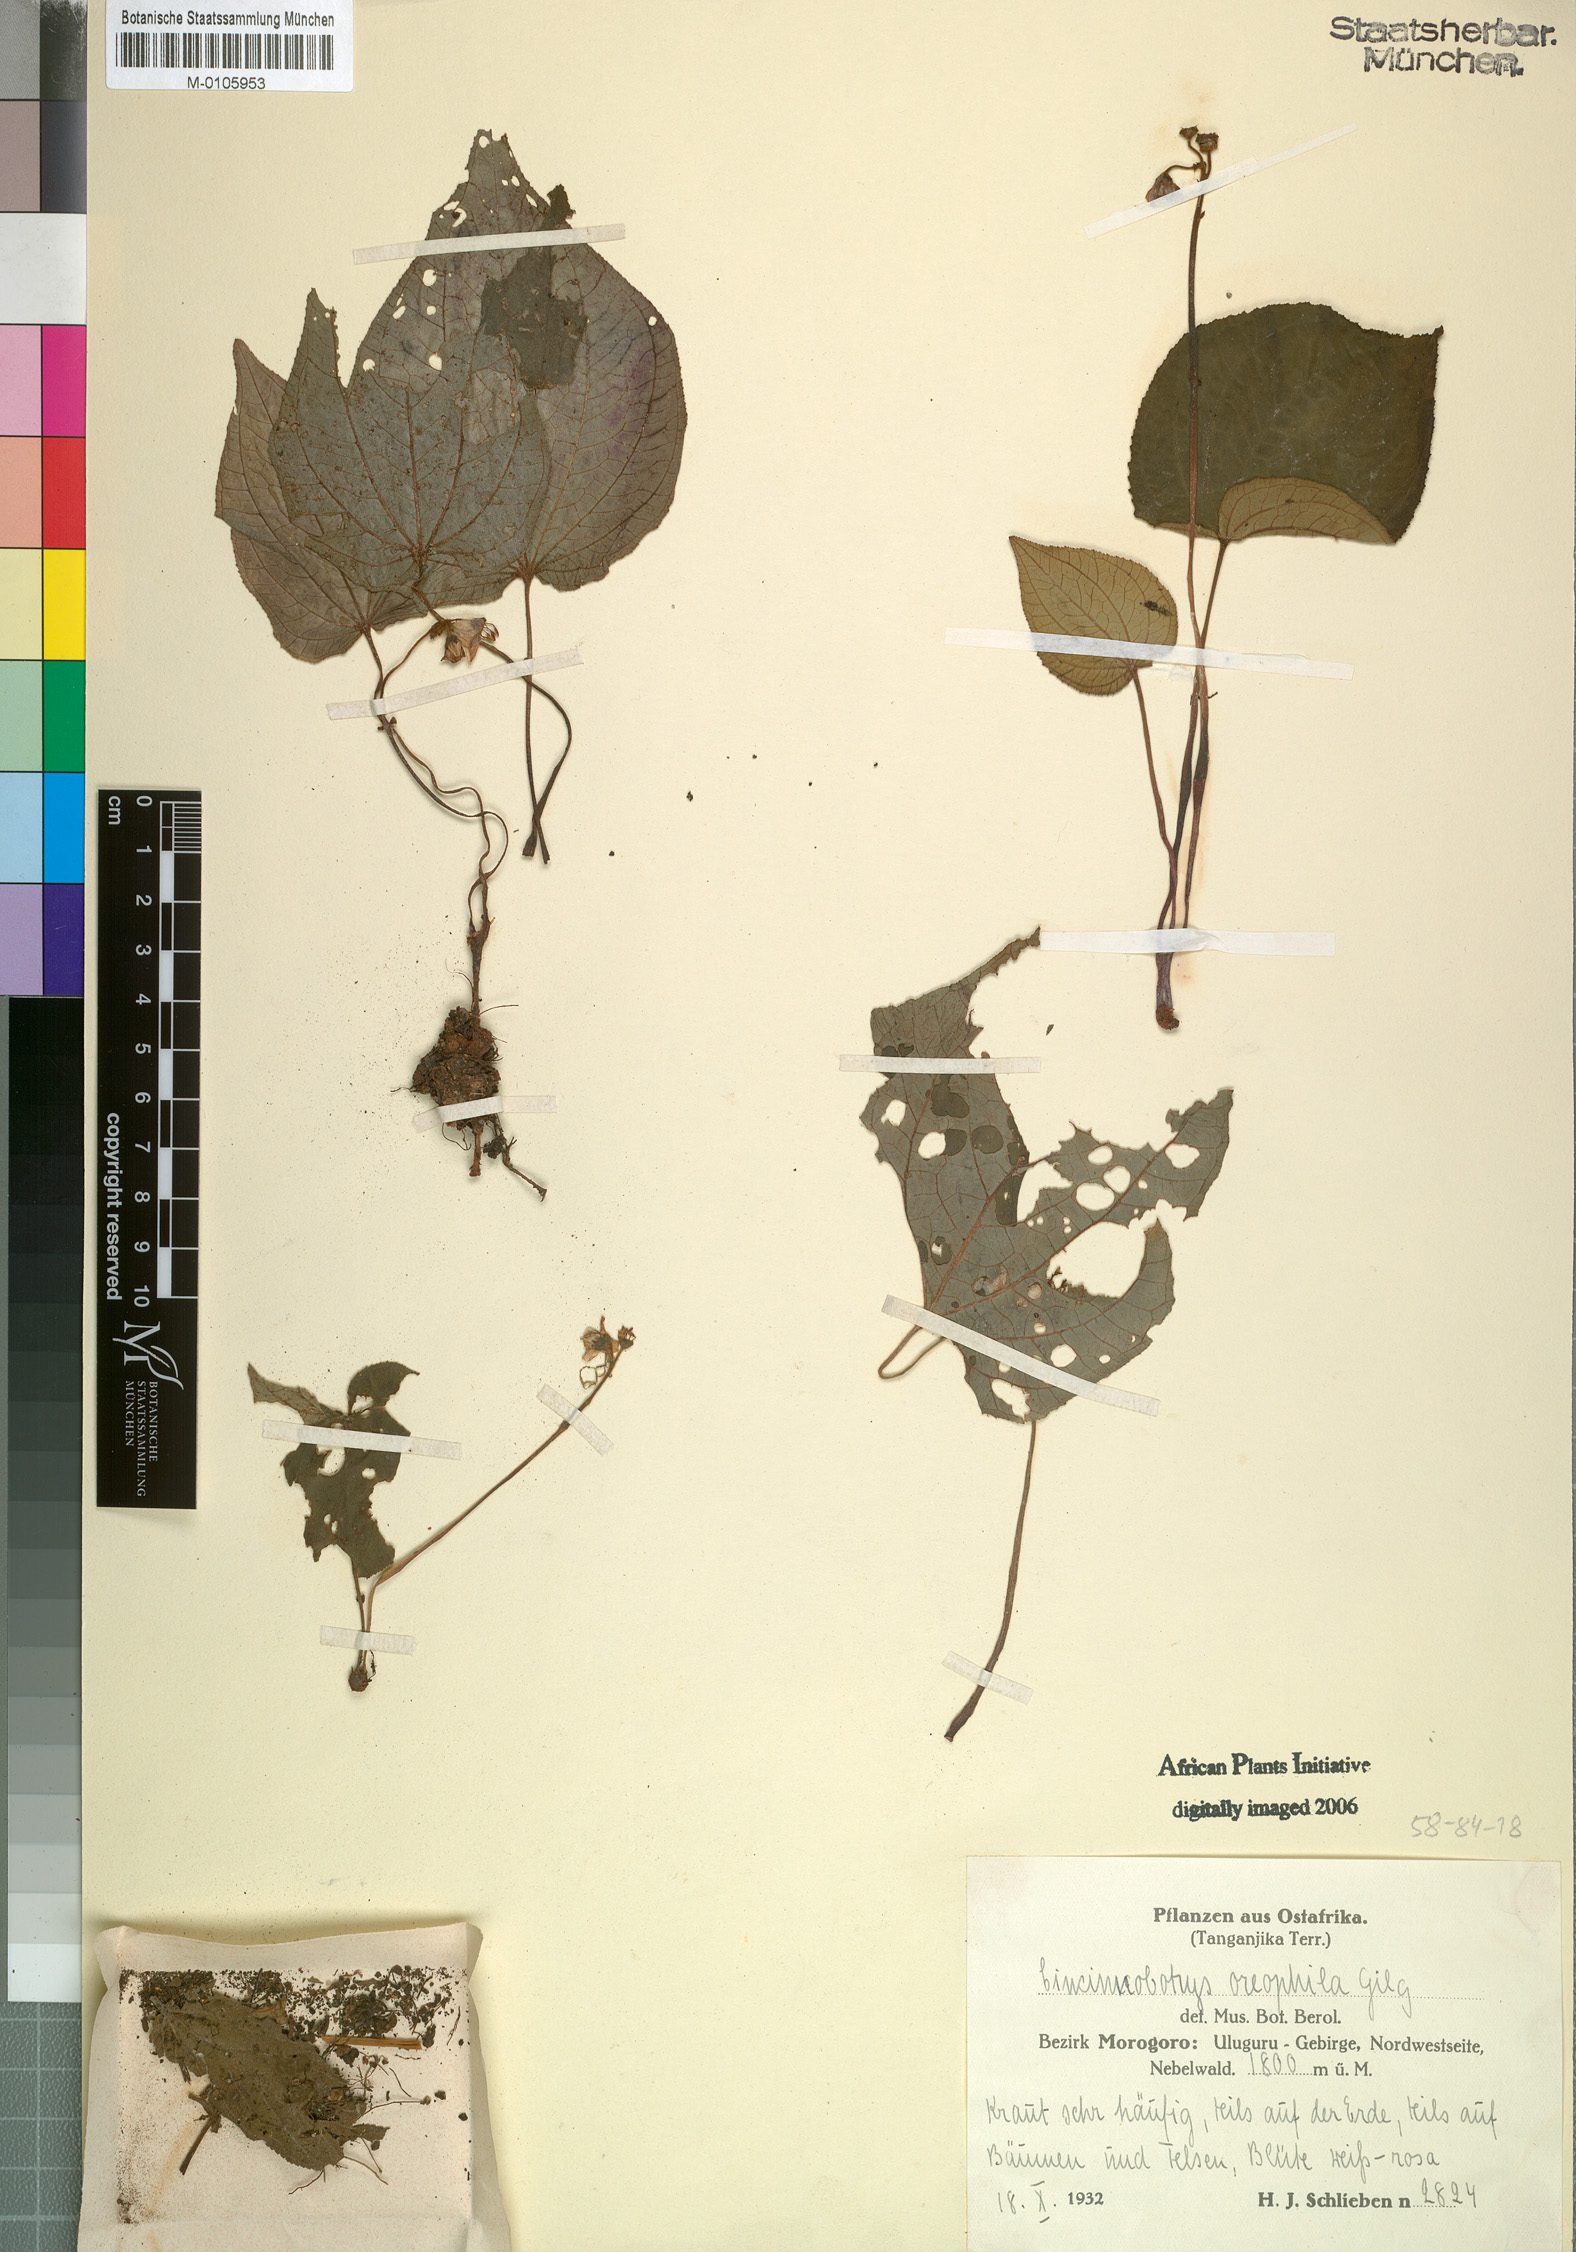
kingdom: Plantae
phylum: Tracheophyta
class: Magnoliopsida
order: Myrtales
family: Melastomataceae
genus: Cincinnobotrys
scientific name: Cincinnobotrys oreophila
